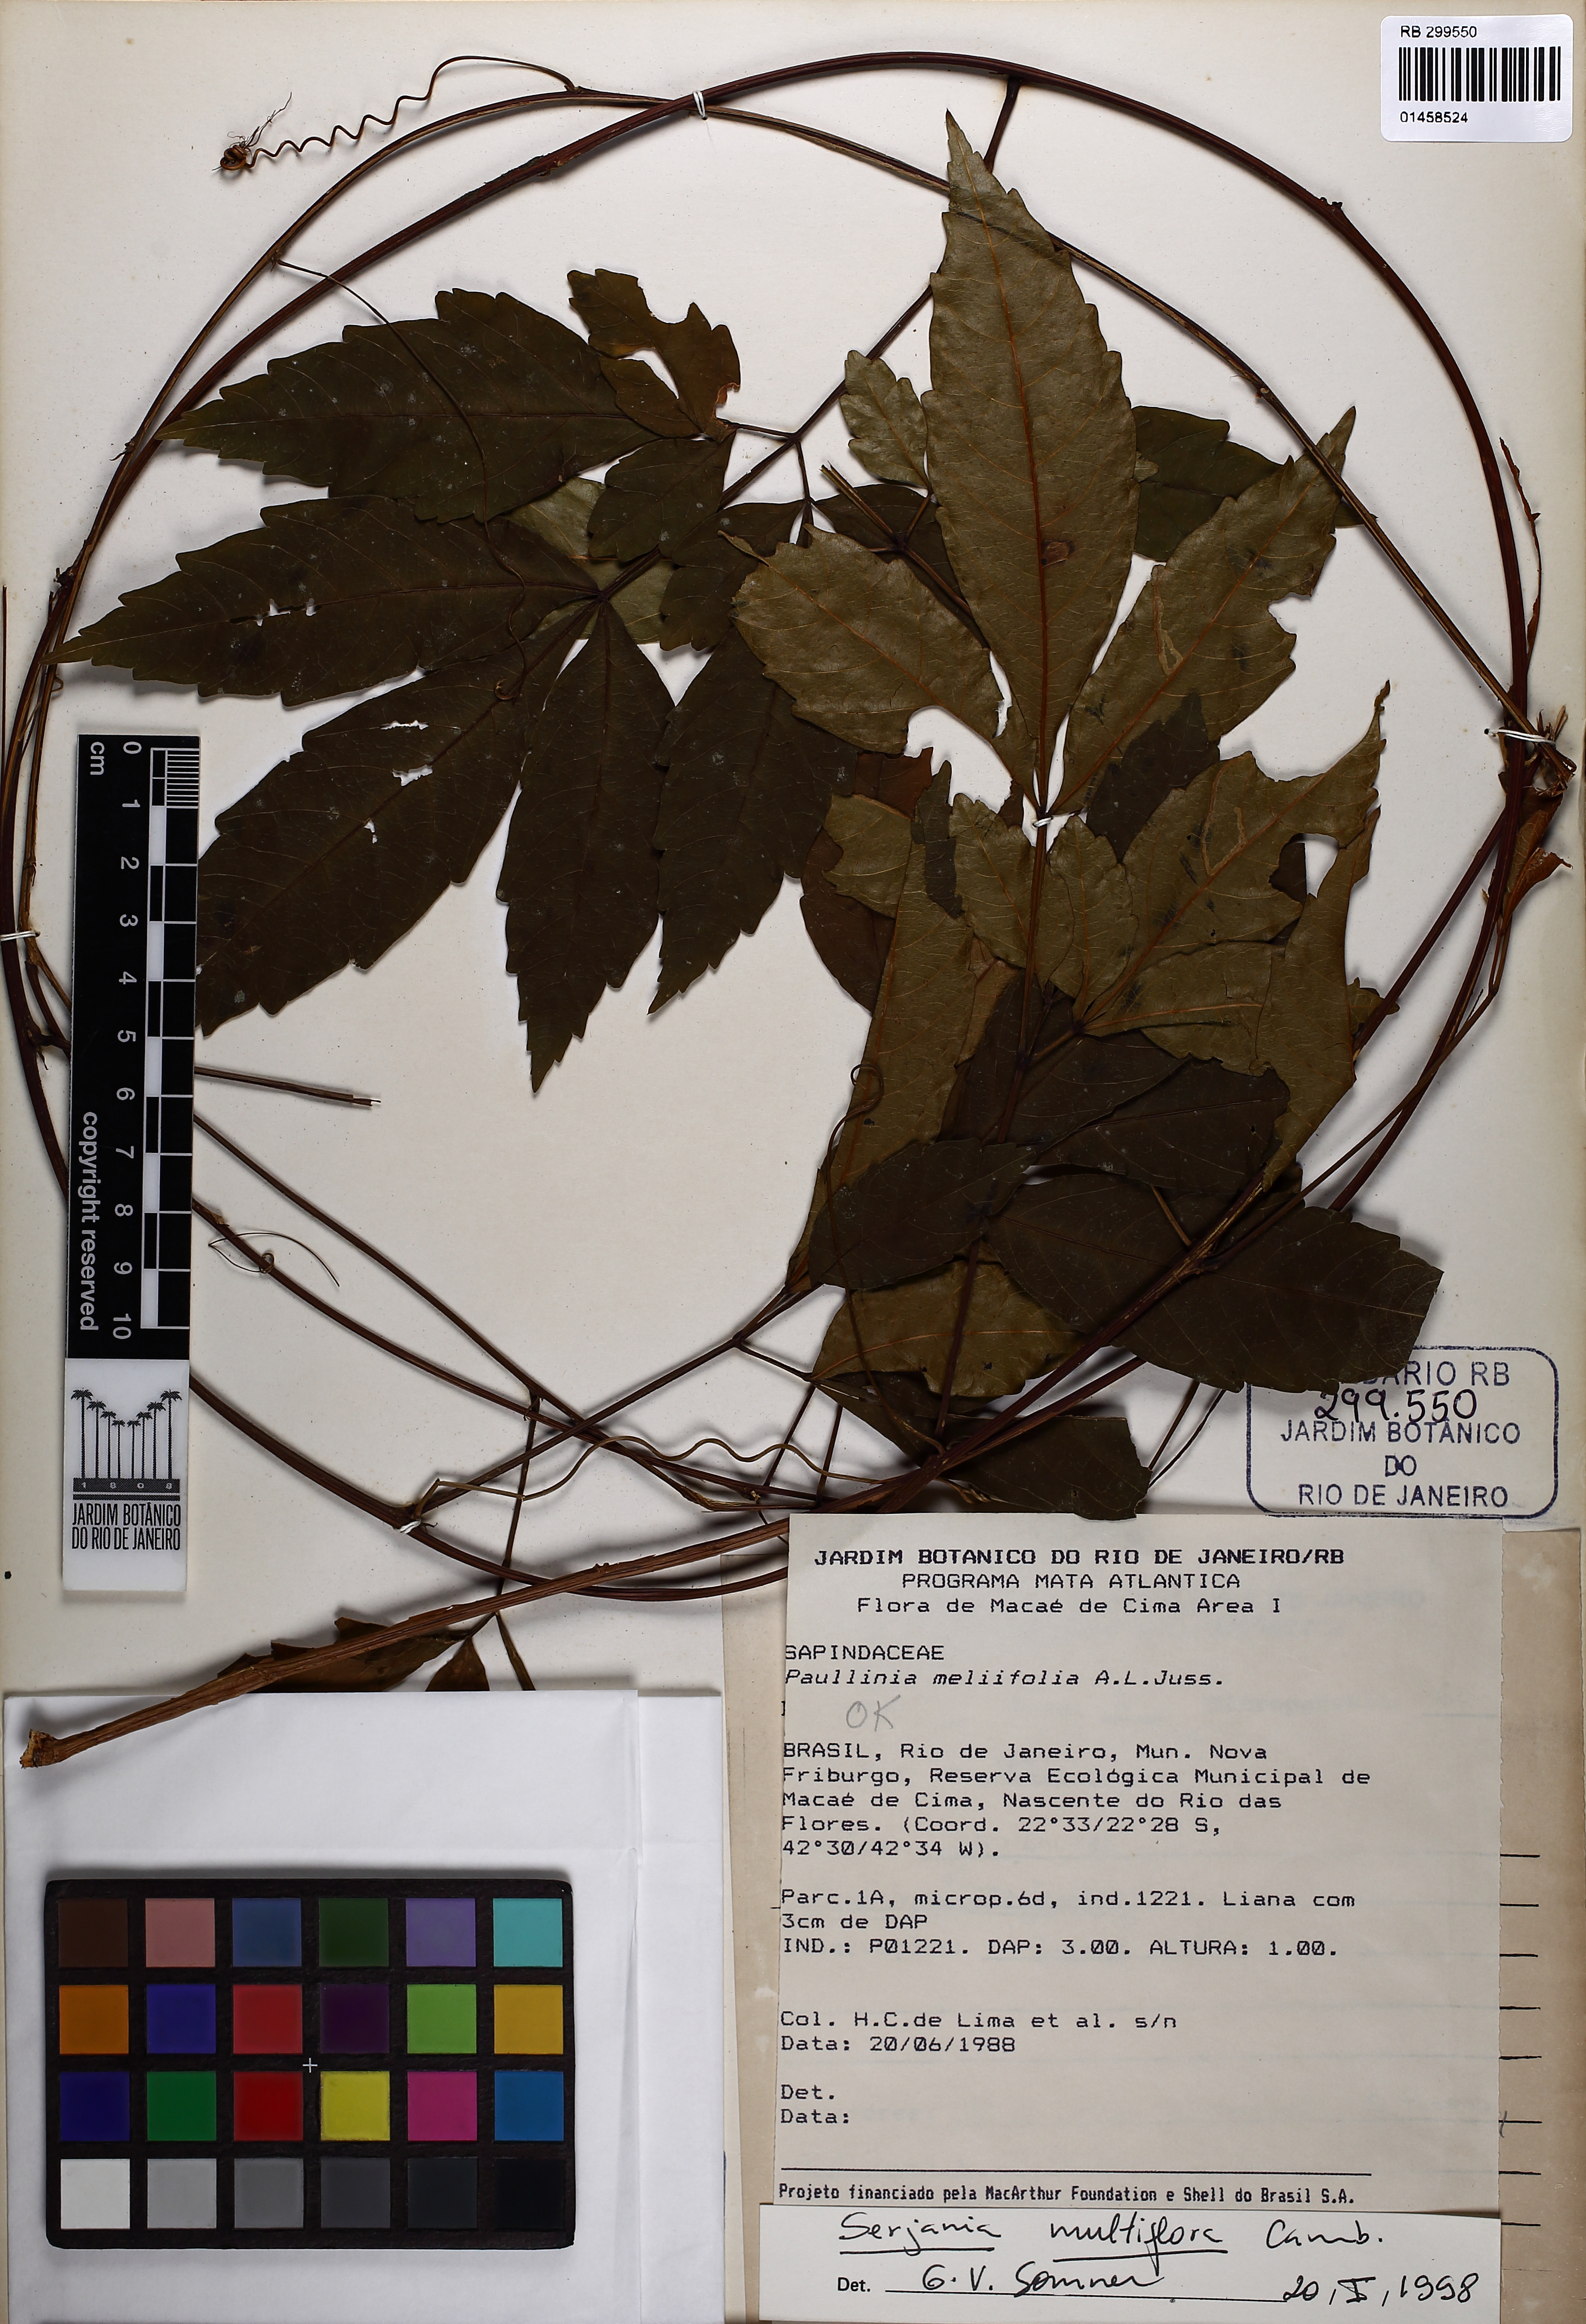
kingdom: Plantae
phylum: Tracheophyta
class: Magnoliopsida
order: Sapindales
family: Sapindaceae
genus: Serjania
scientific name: Serjania multiflora
